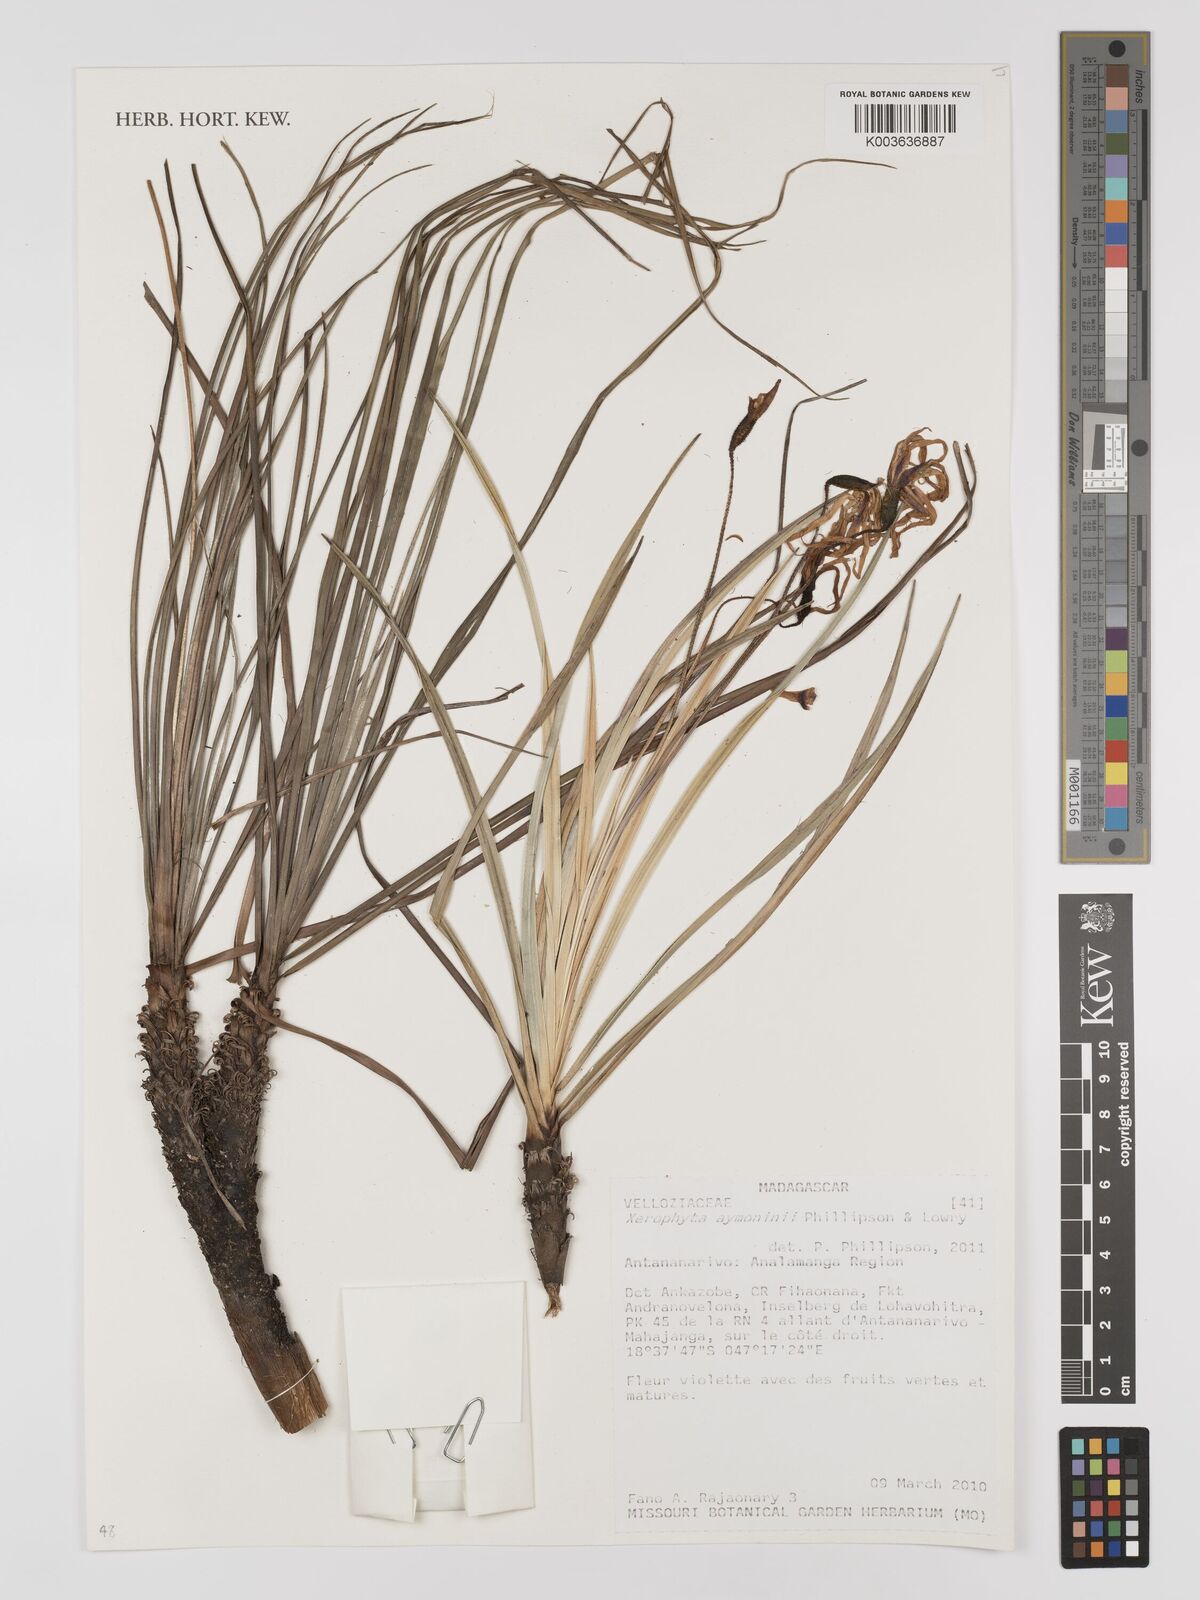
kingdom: Plantae
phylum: Tracheophyta
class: Liliopsida
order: Pandanales
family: Velloziaceae
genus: Xerophyta
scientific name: Xerophyta
